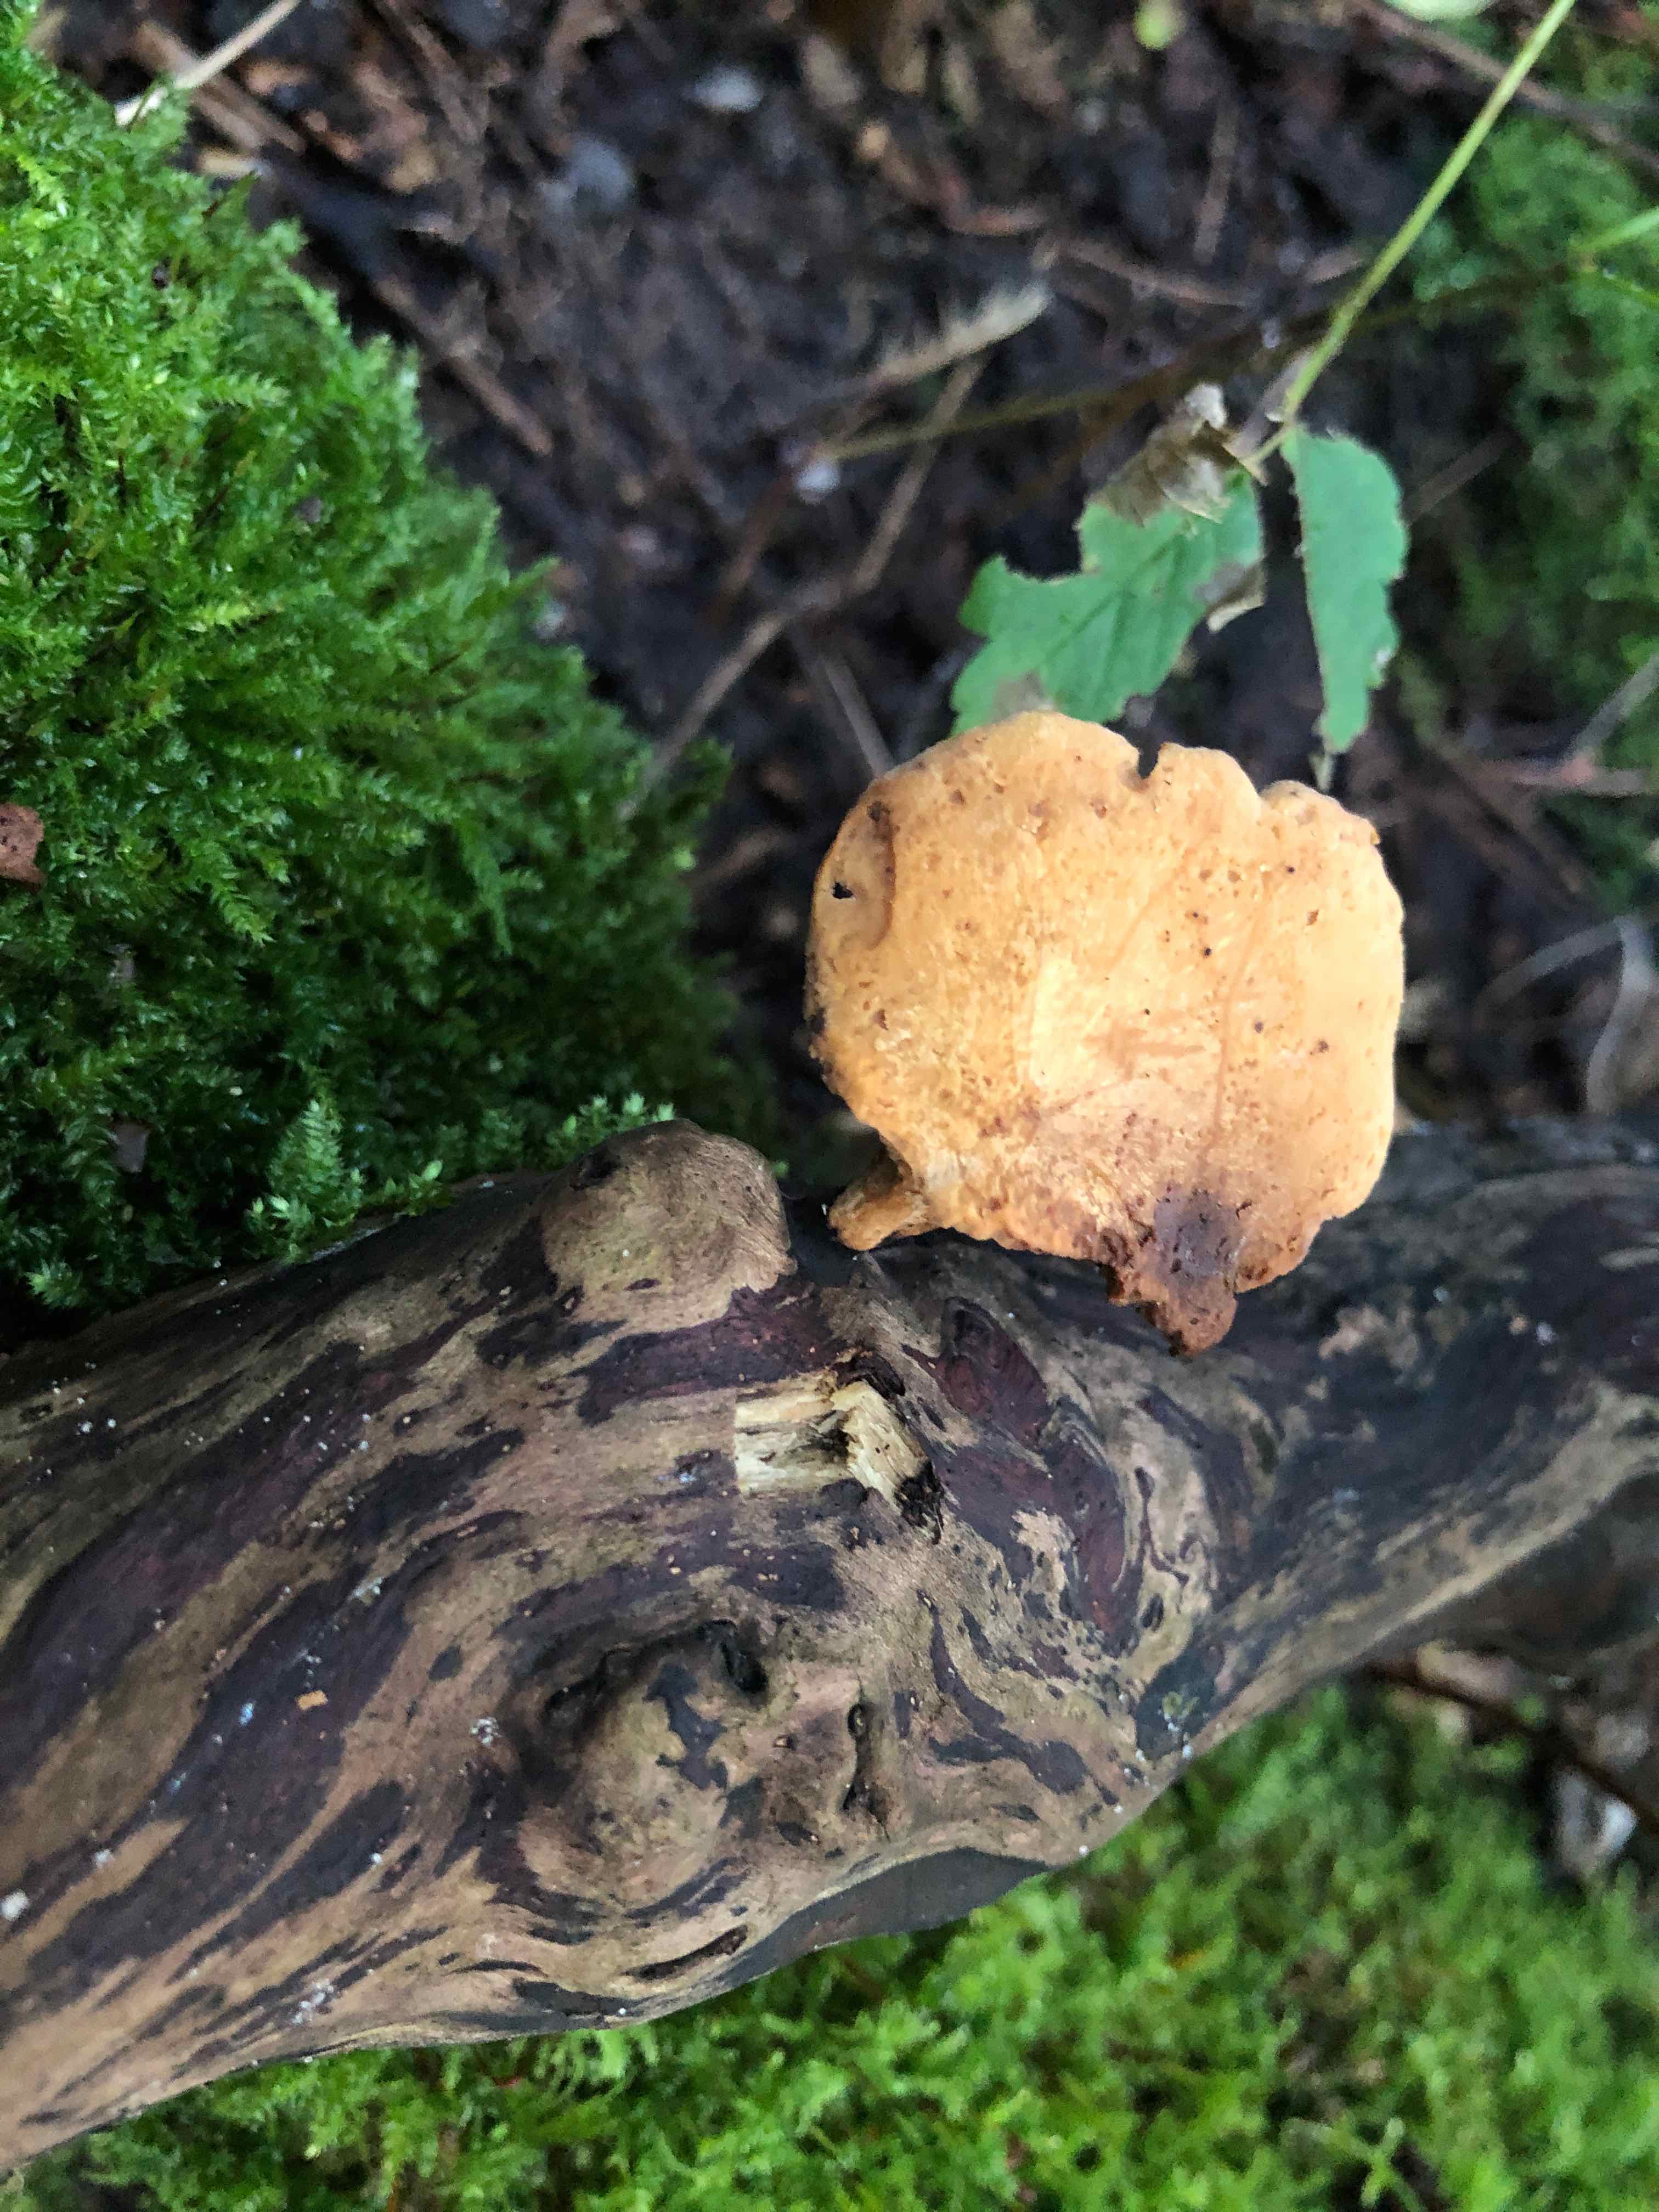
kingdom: Fungi
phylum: Basidiomycota
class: Agaricomycetes
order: Polyporales
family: Polyporaceae
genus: Cerioporus
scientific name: Cerioporus varius
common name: foranderlig stilkporesvamp
